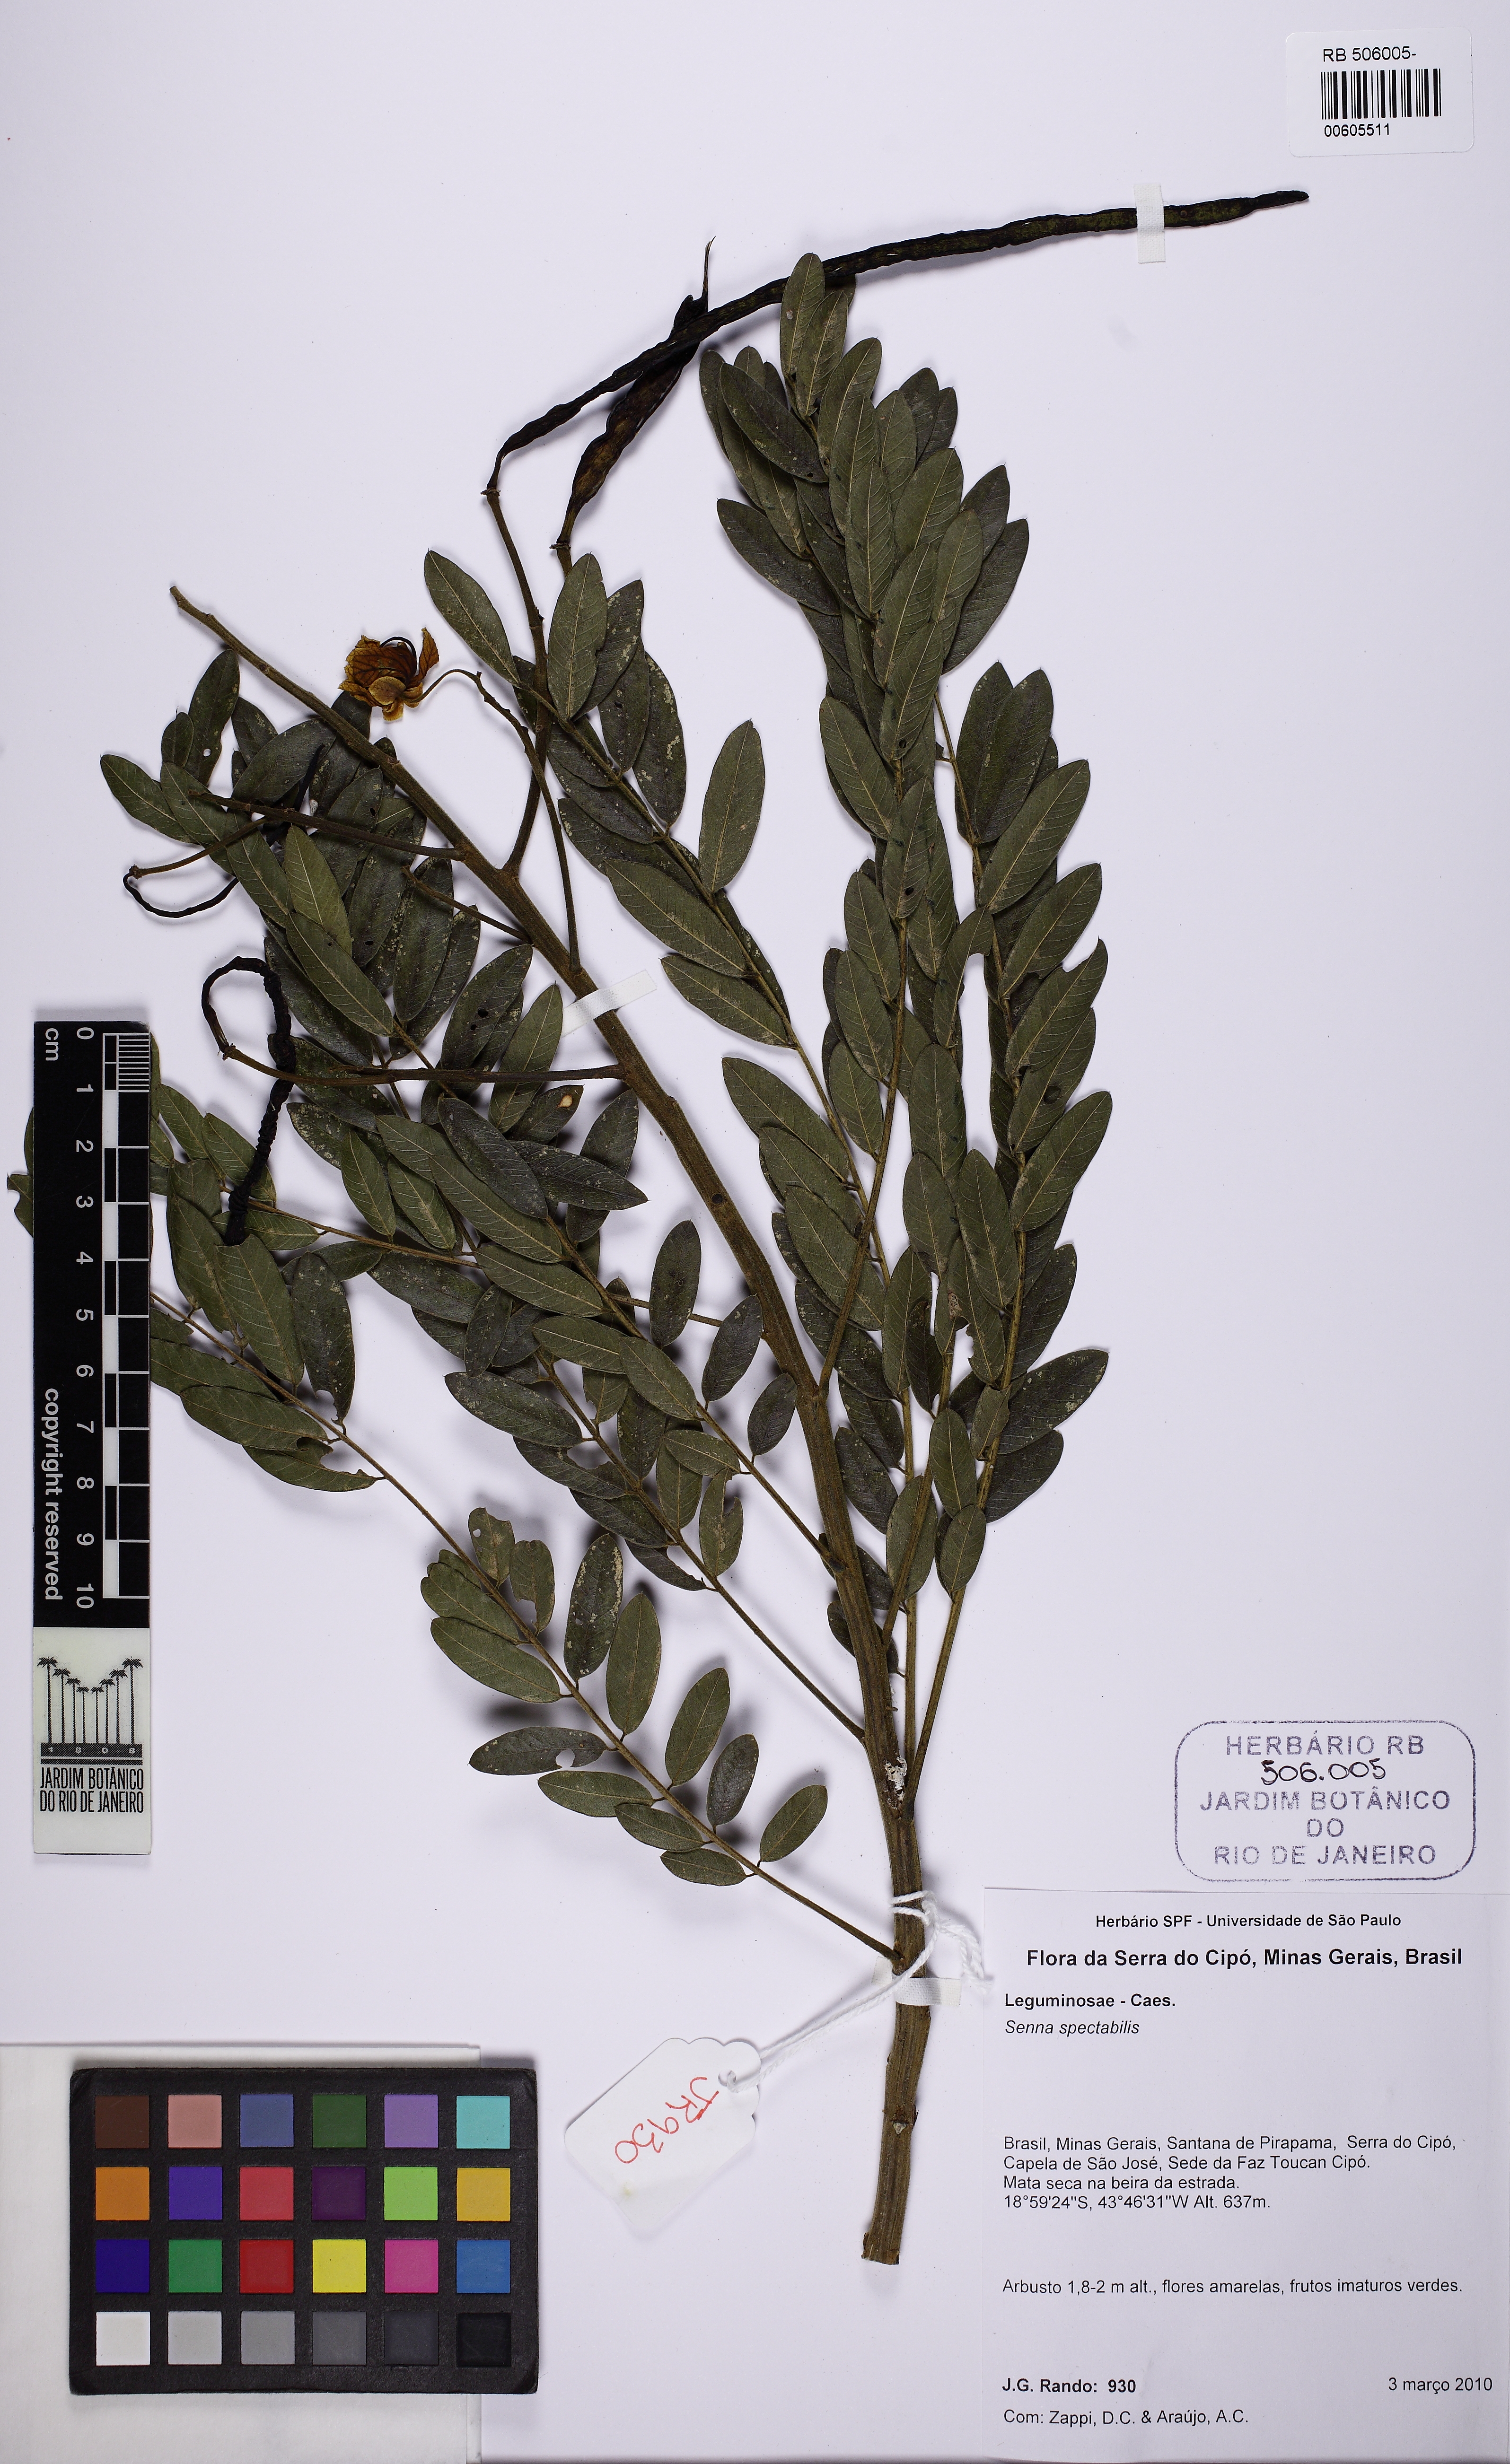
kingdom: Plantae
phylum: Tracheophyta
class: Magnoliopsida
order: Fabales
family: Fabaceae
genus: Senna
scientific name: Senna spectabilis
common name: Casia amarilla
